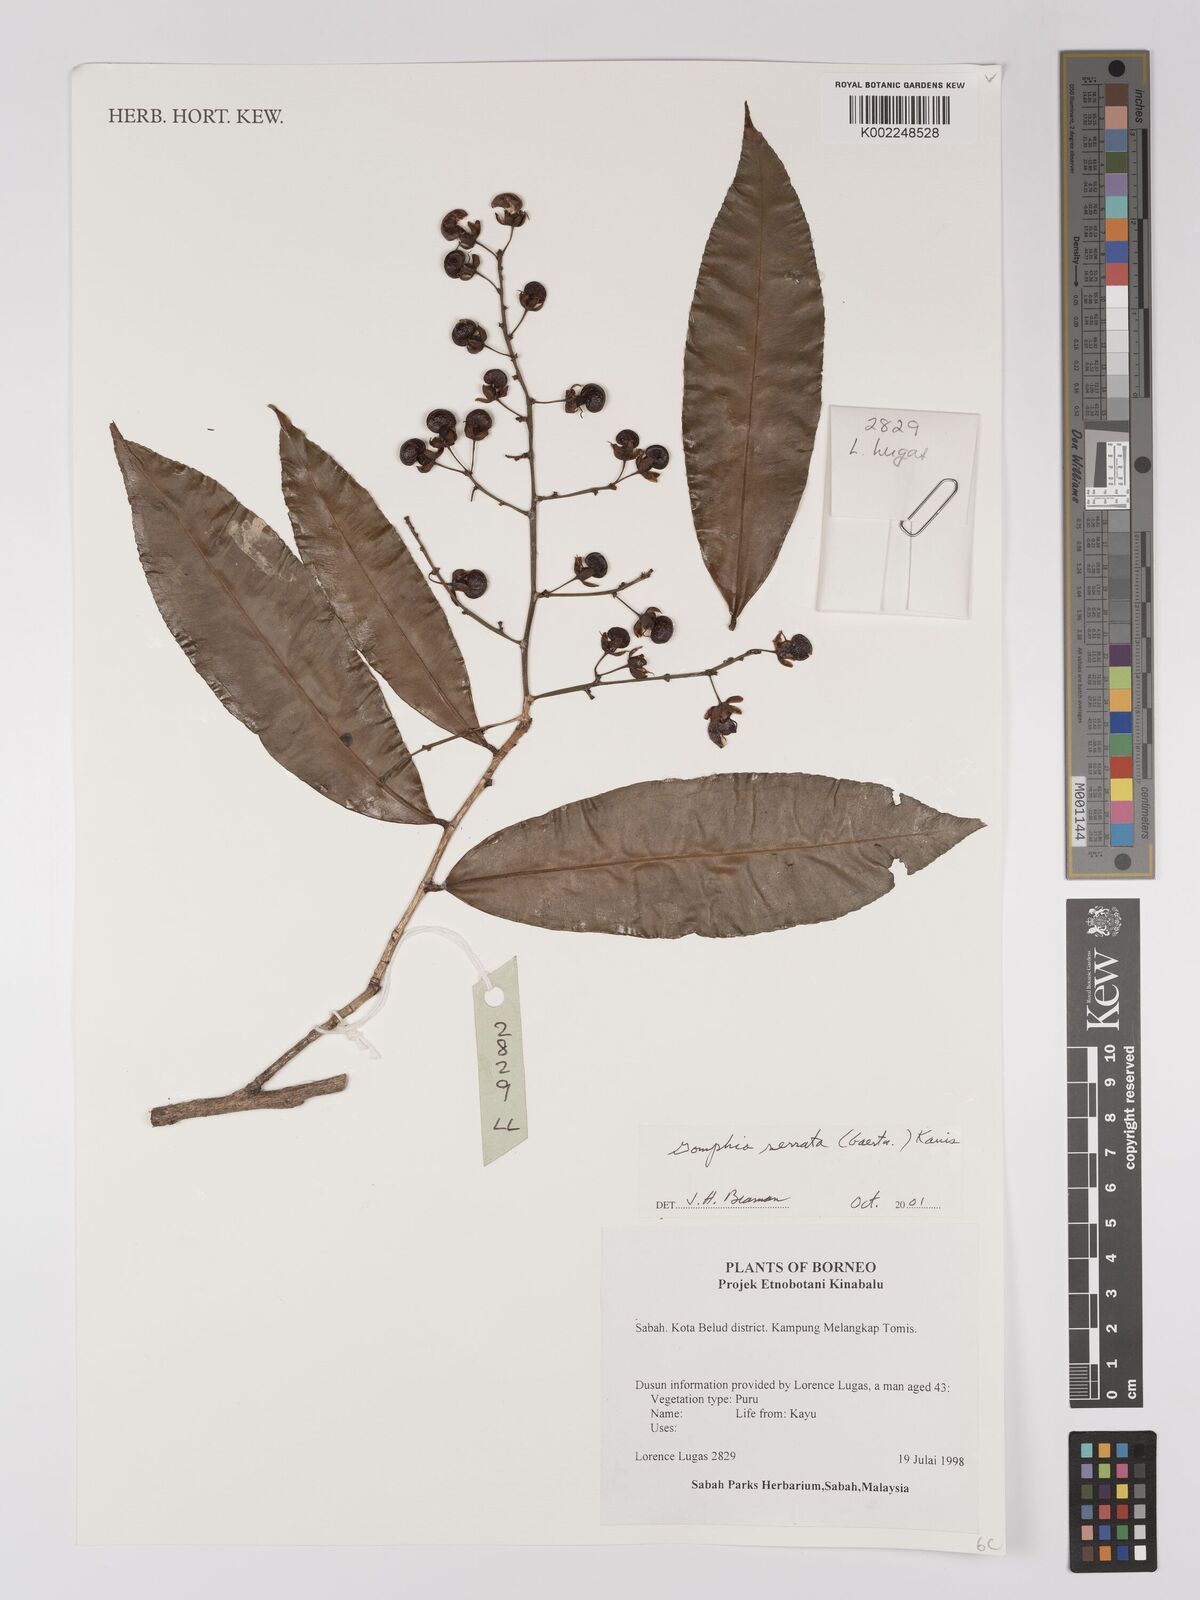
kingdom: Plantae
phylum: Tracheophyta
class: Magnoliopsida
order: Malpighiales
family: Ochnaceae
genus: Gomphia
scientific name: Gomphia serrata
